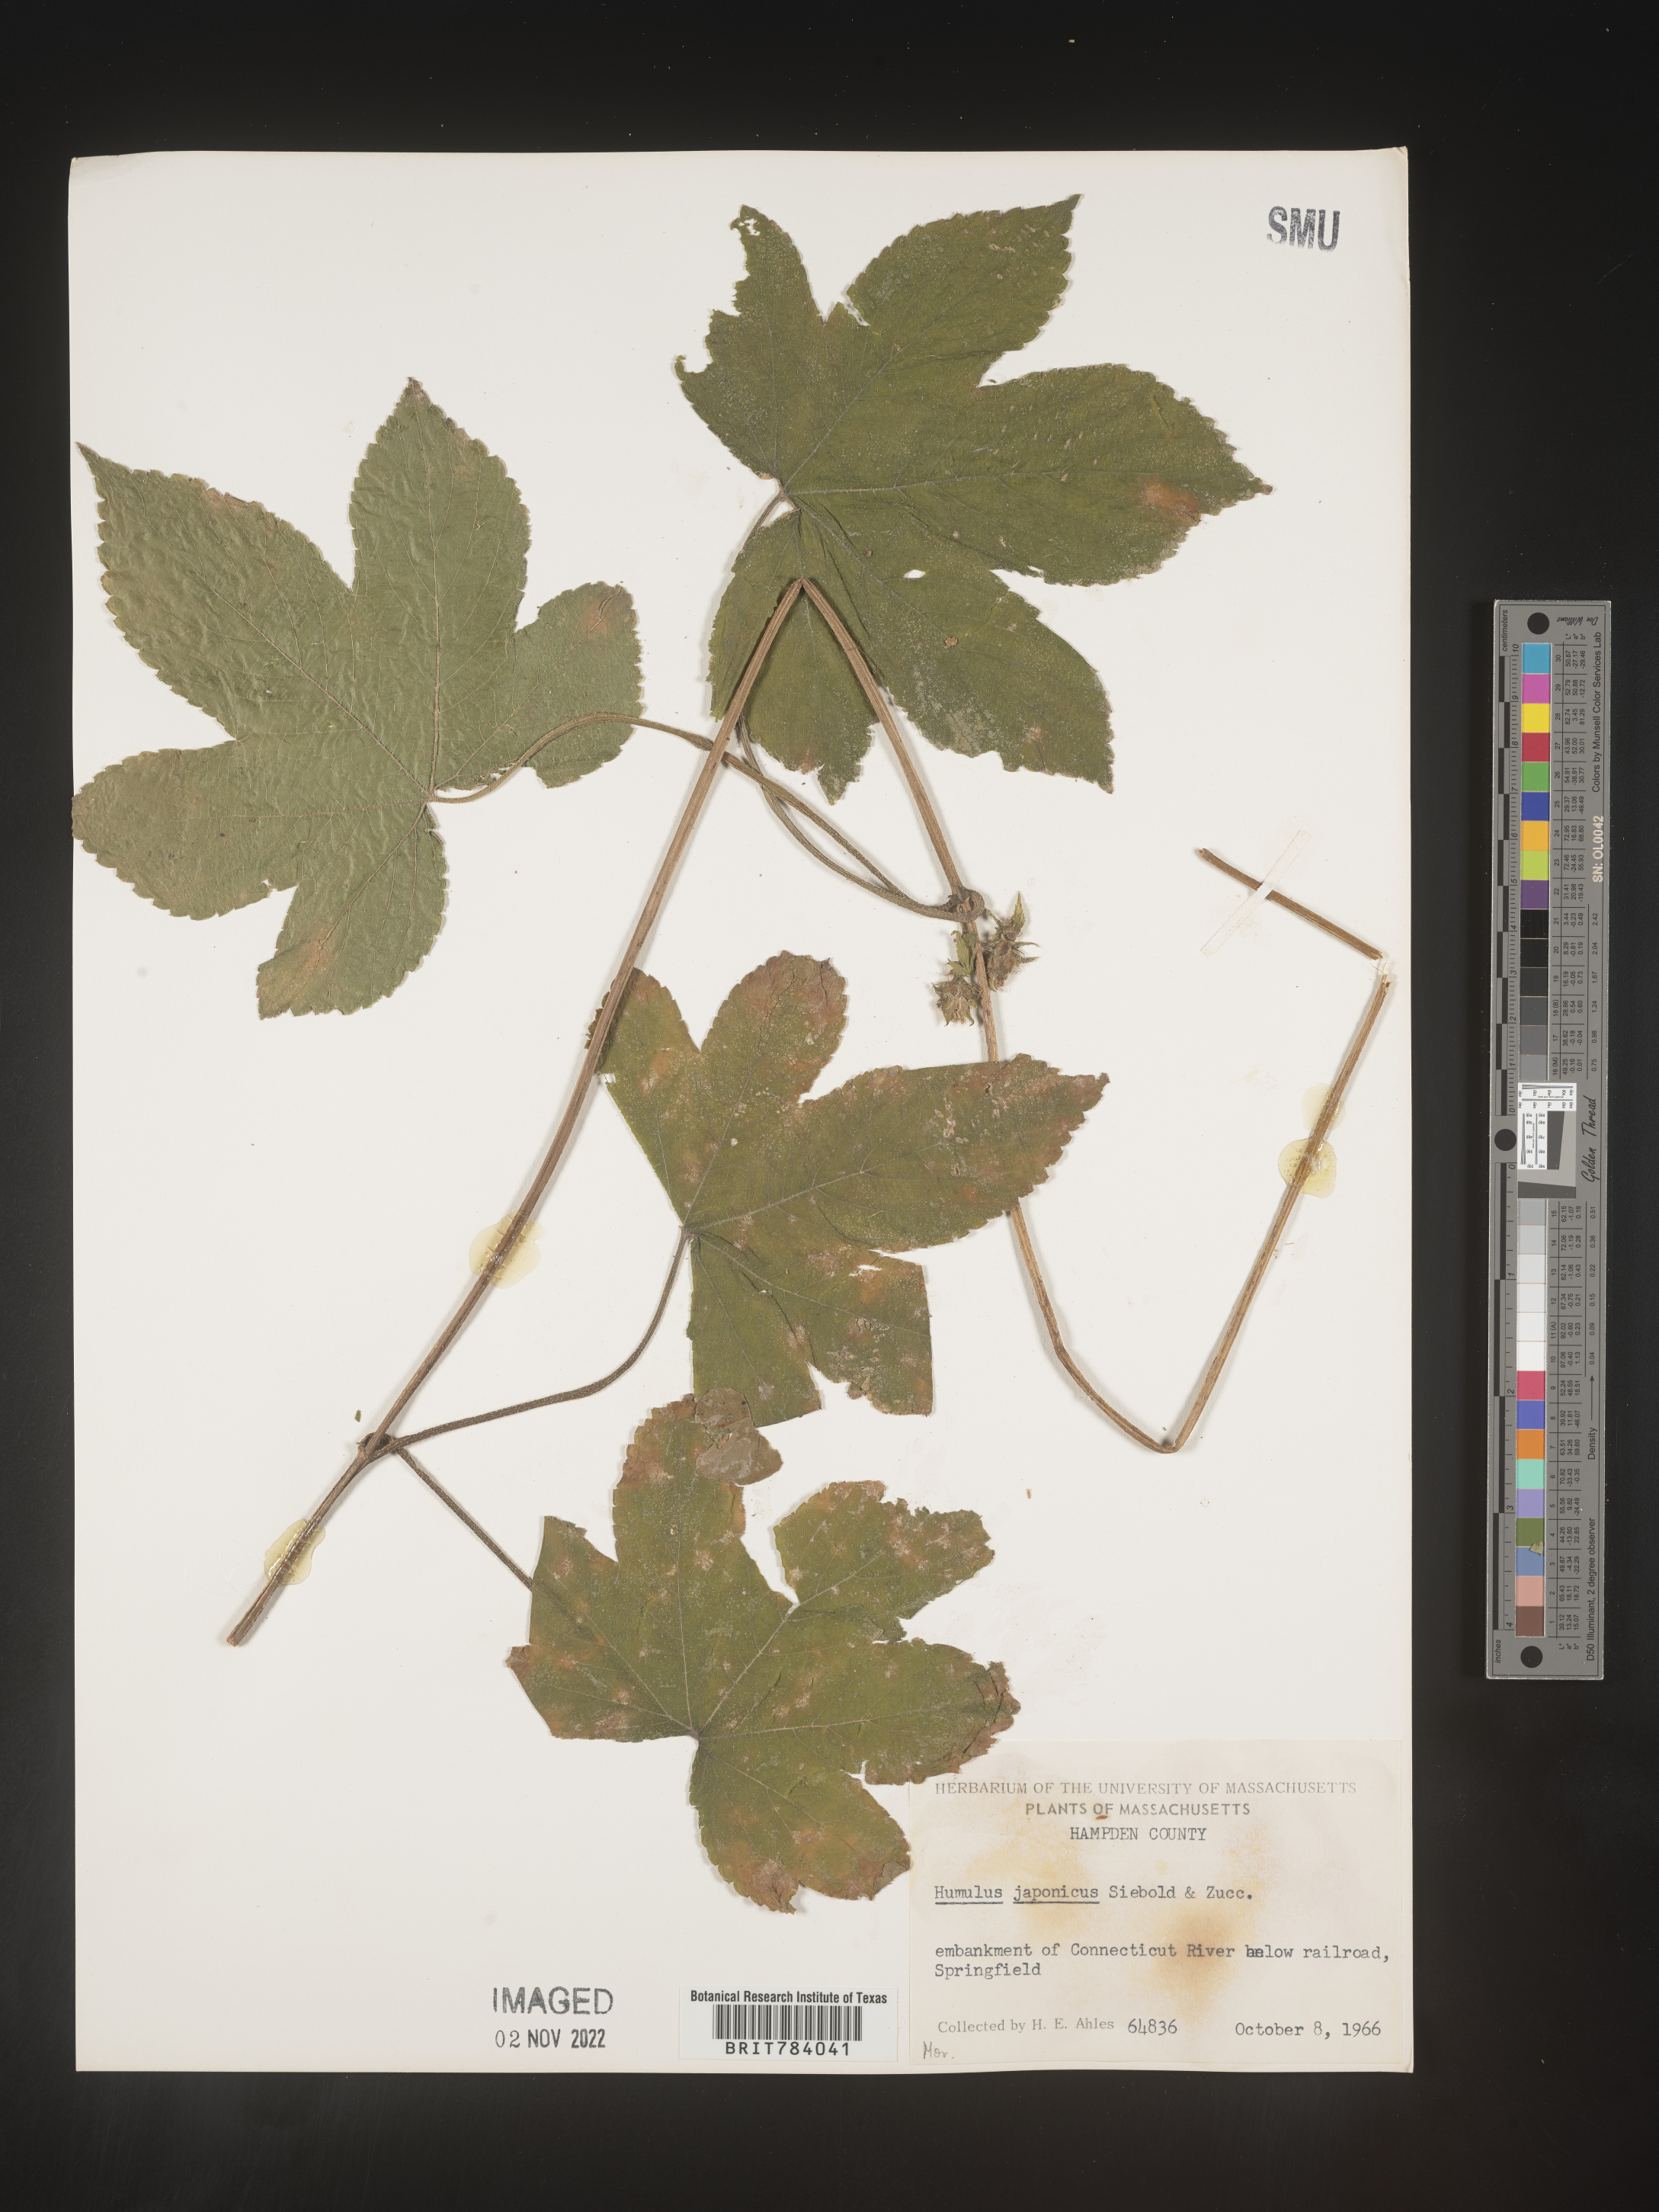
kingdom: Plantae
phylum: Tracheophyta
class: Magnoliopsida
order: Rosales
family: Cannabaceae
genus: Humulus
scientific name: Humulus scandens
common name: Japanese hop
